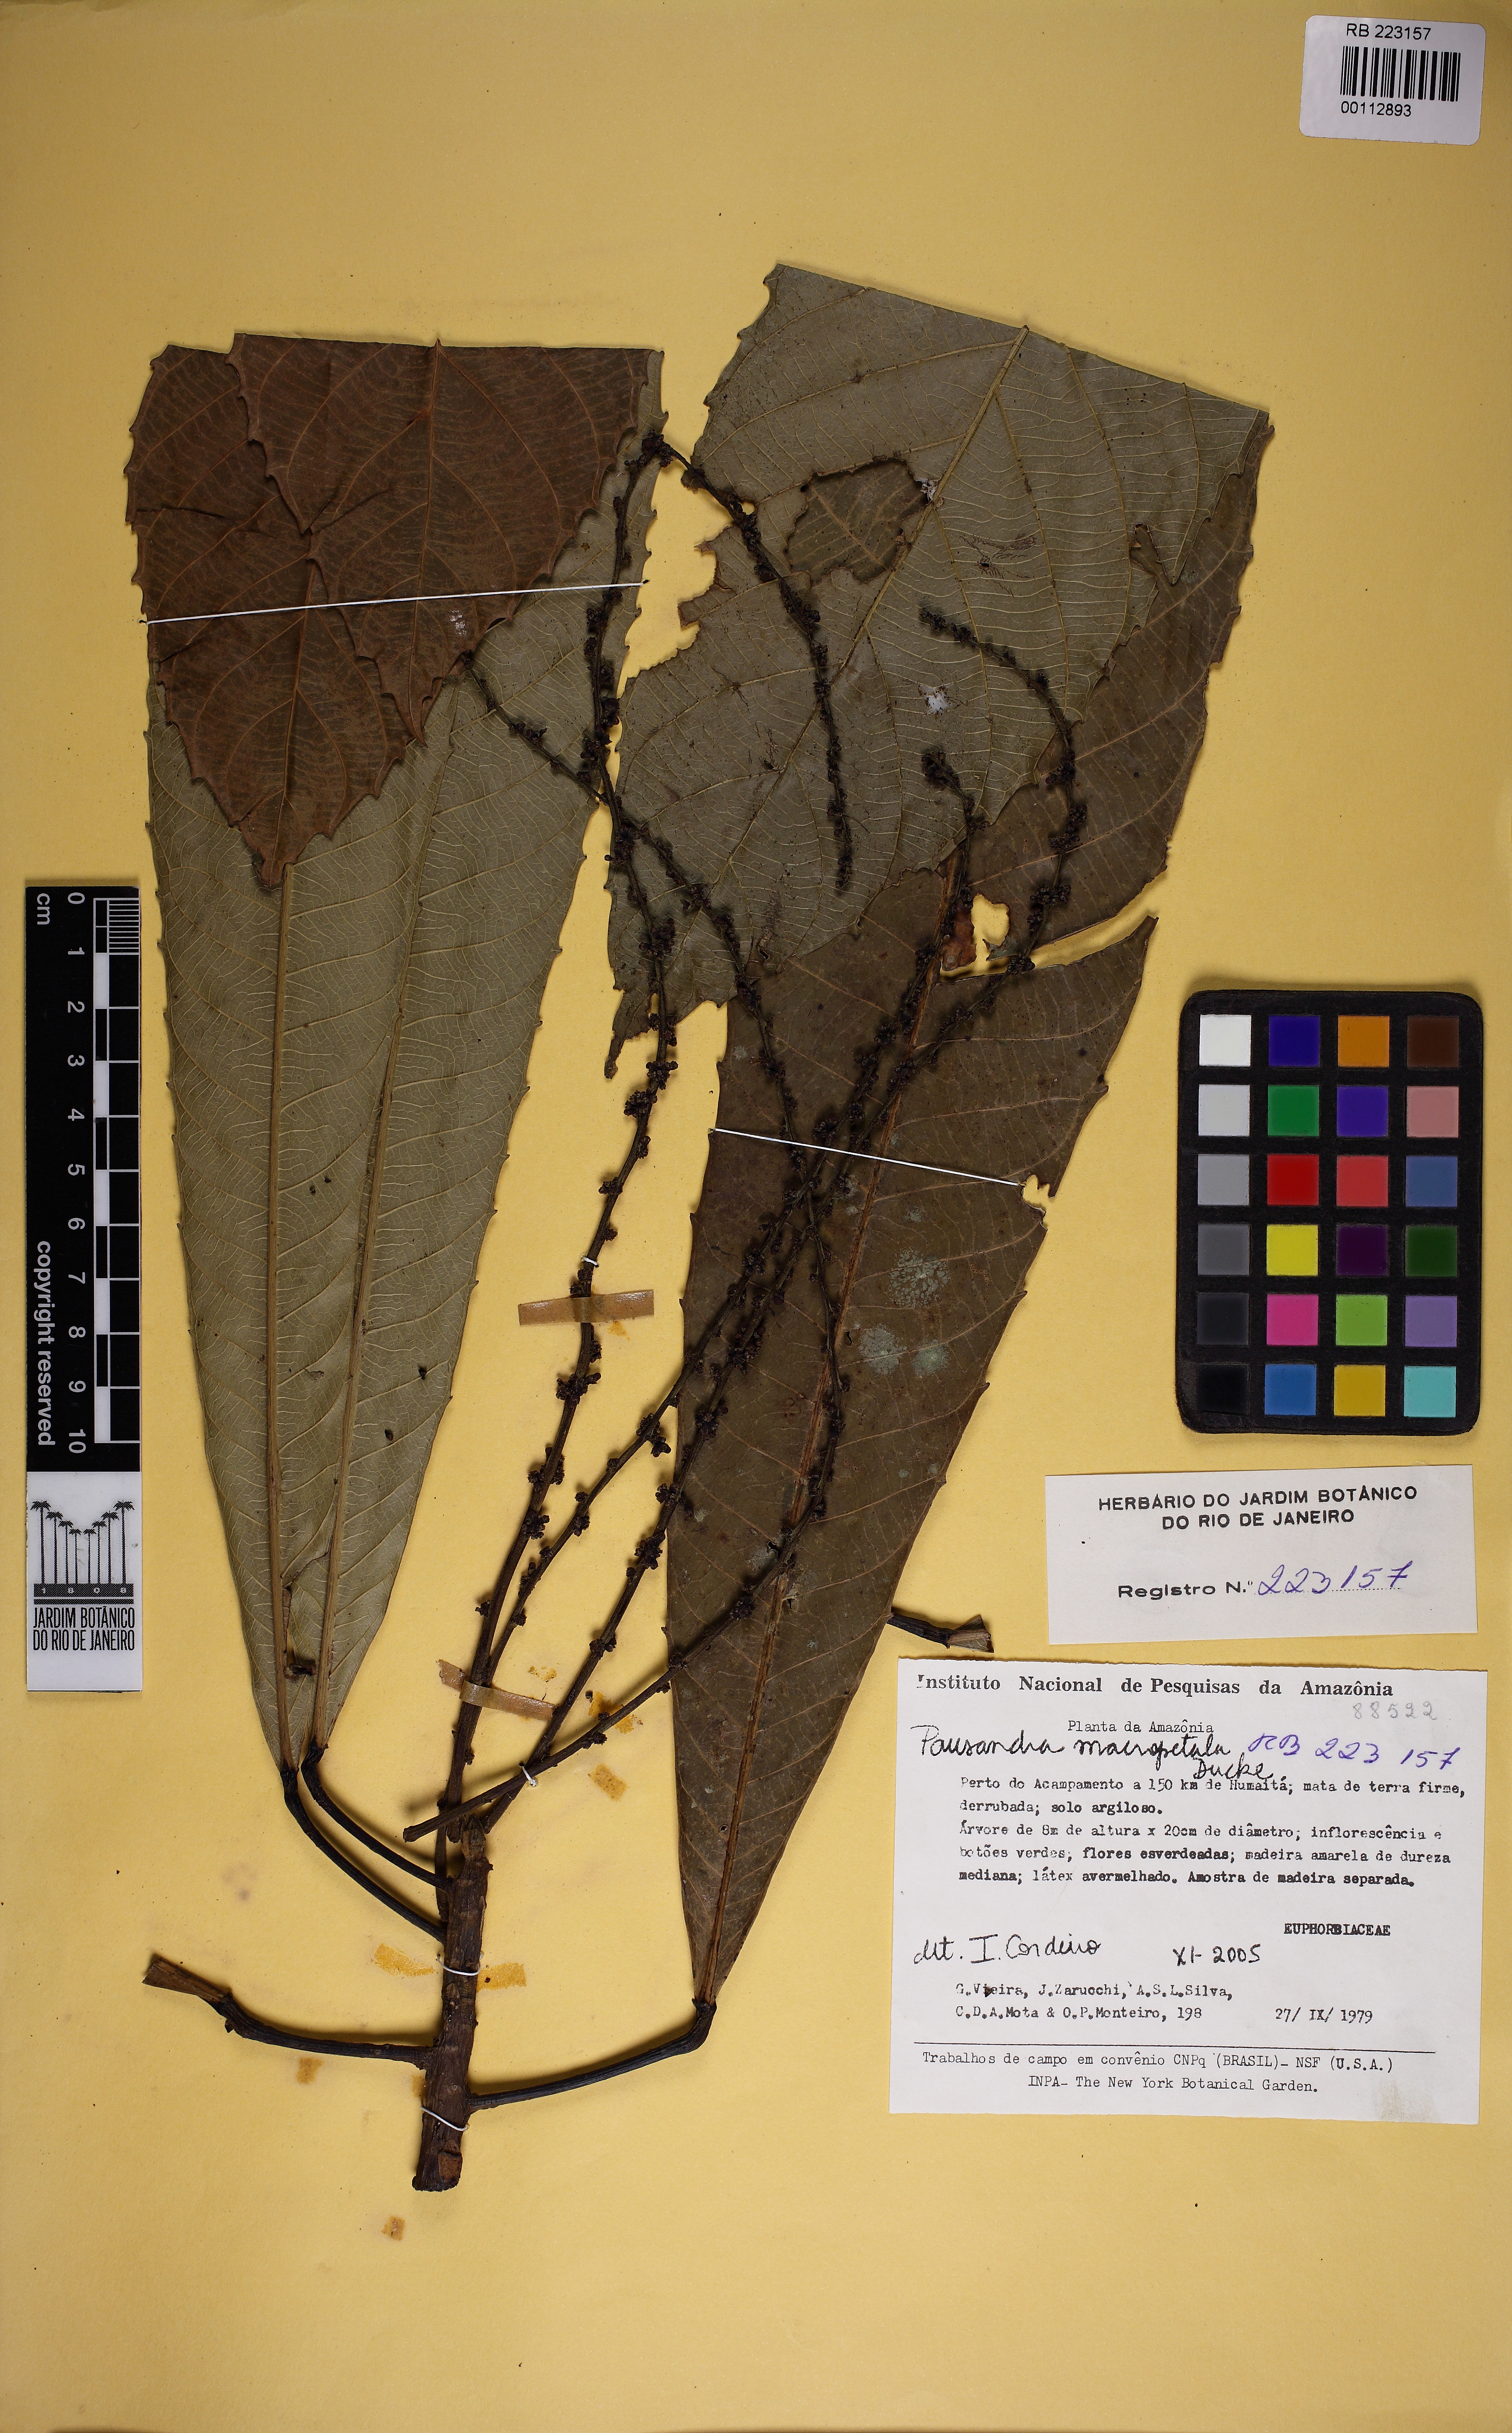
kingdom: Plantae
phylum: Tracheophyta
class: Magnoliopsida
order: Malpighiales
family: Euphorbiaceae
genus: Pausandra
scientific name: Pausandra macropetala
